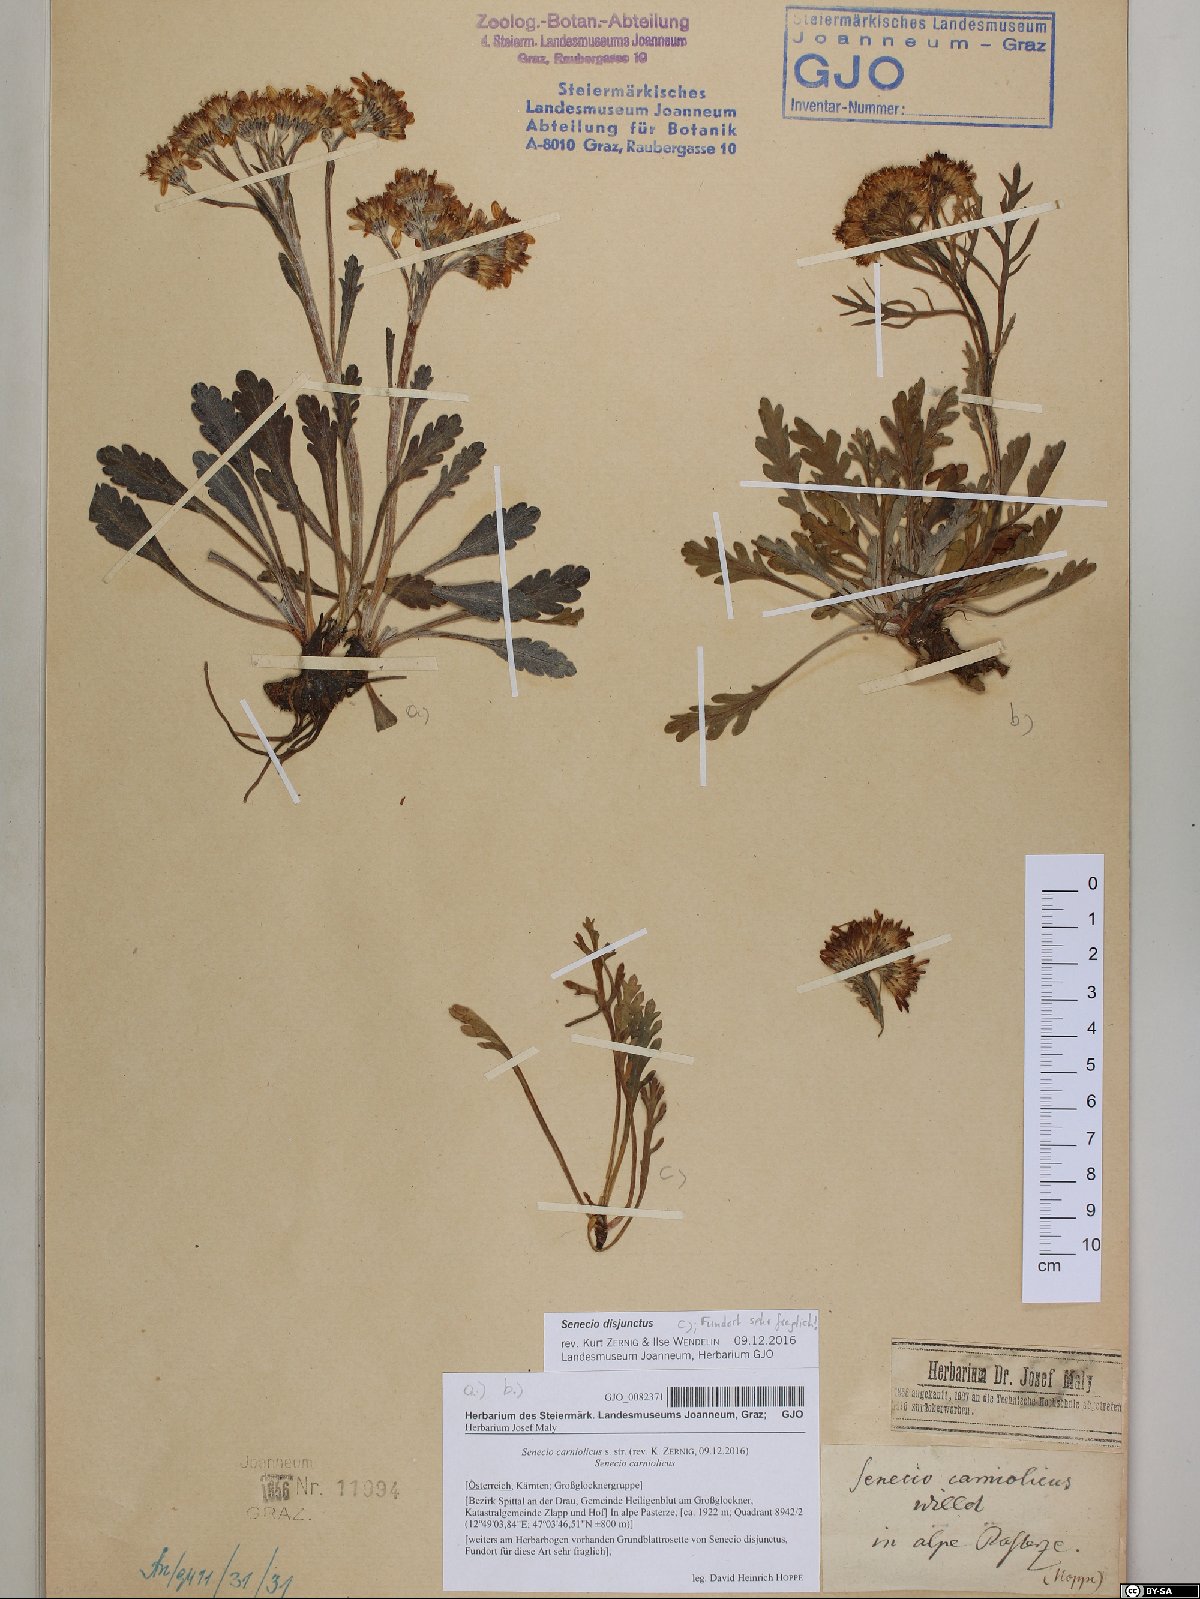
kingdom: Plantae
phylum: Tracheophyta
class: Magnoliopsida
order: Asterales
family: Asteraceae
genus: Jacobaea
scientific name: Jacobaea carniolica
